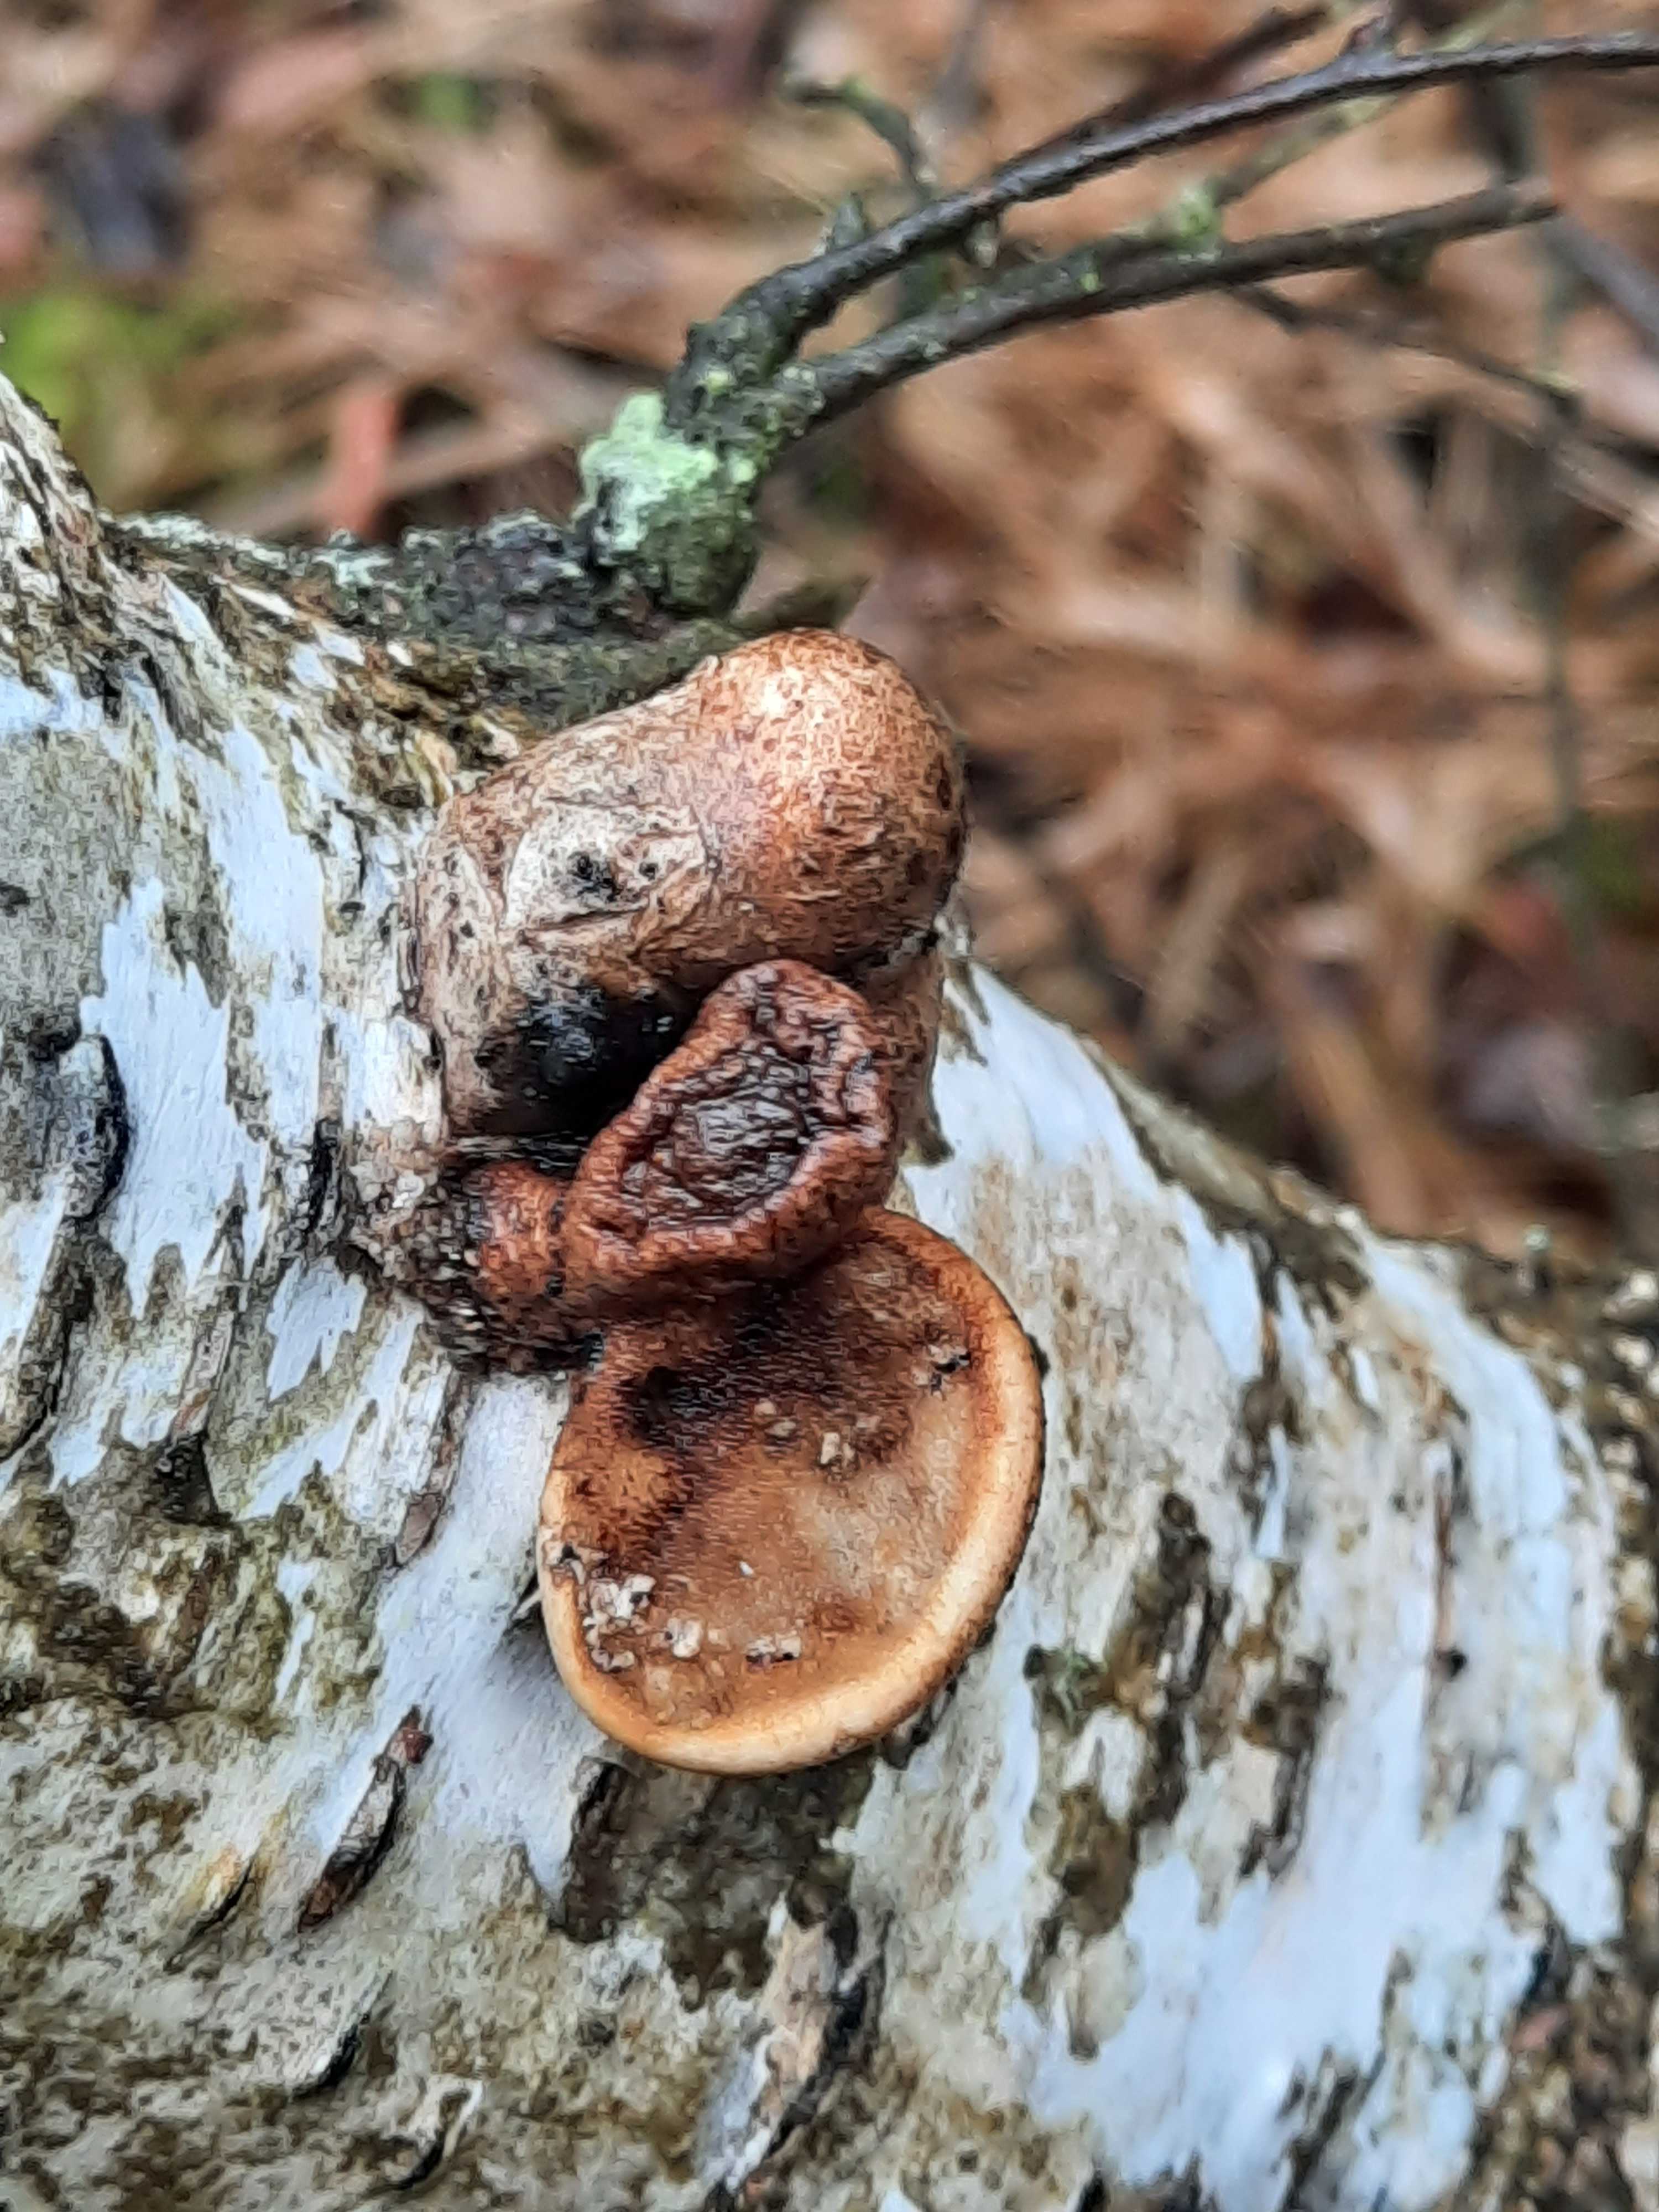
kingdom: Fungi
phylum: Basidiomycota
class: Agaricomycetes
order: Polyporales
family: Fomitopsidaceae
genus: Fomitopsis
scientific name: Fomitopsis betulina
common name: birkeporesvamp
